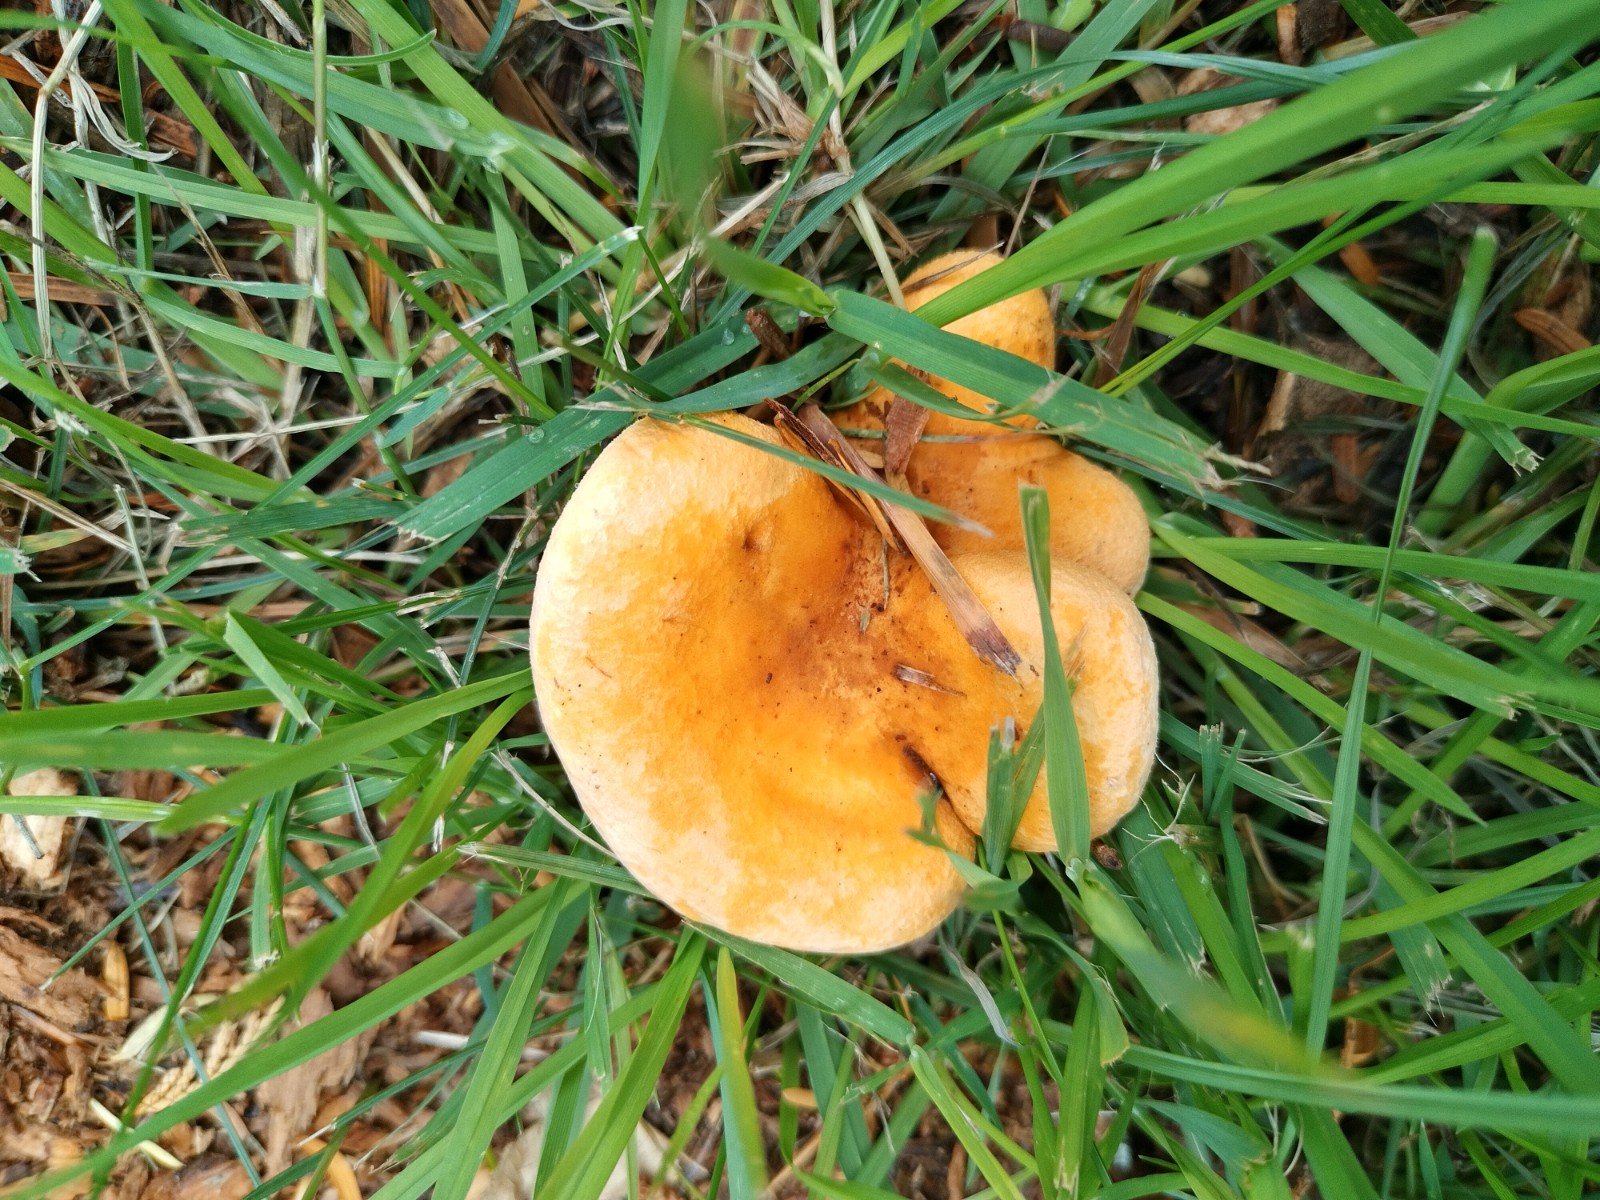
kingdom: Fungi
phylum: Basidiomycota
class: Agaricomycetes
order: Boletales
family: Hygrophoropsidaceae
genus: Hygrophoropsis
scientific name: Hygrophoropsis aurantiaca
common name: almindelig orangekantarel
